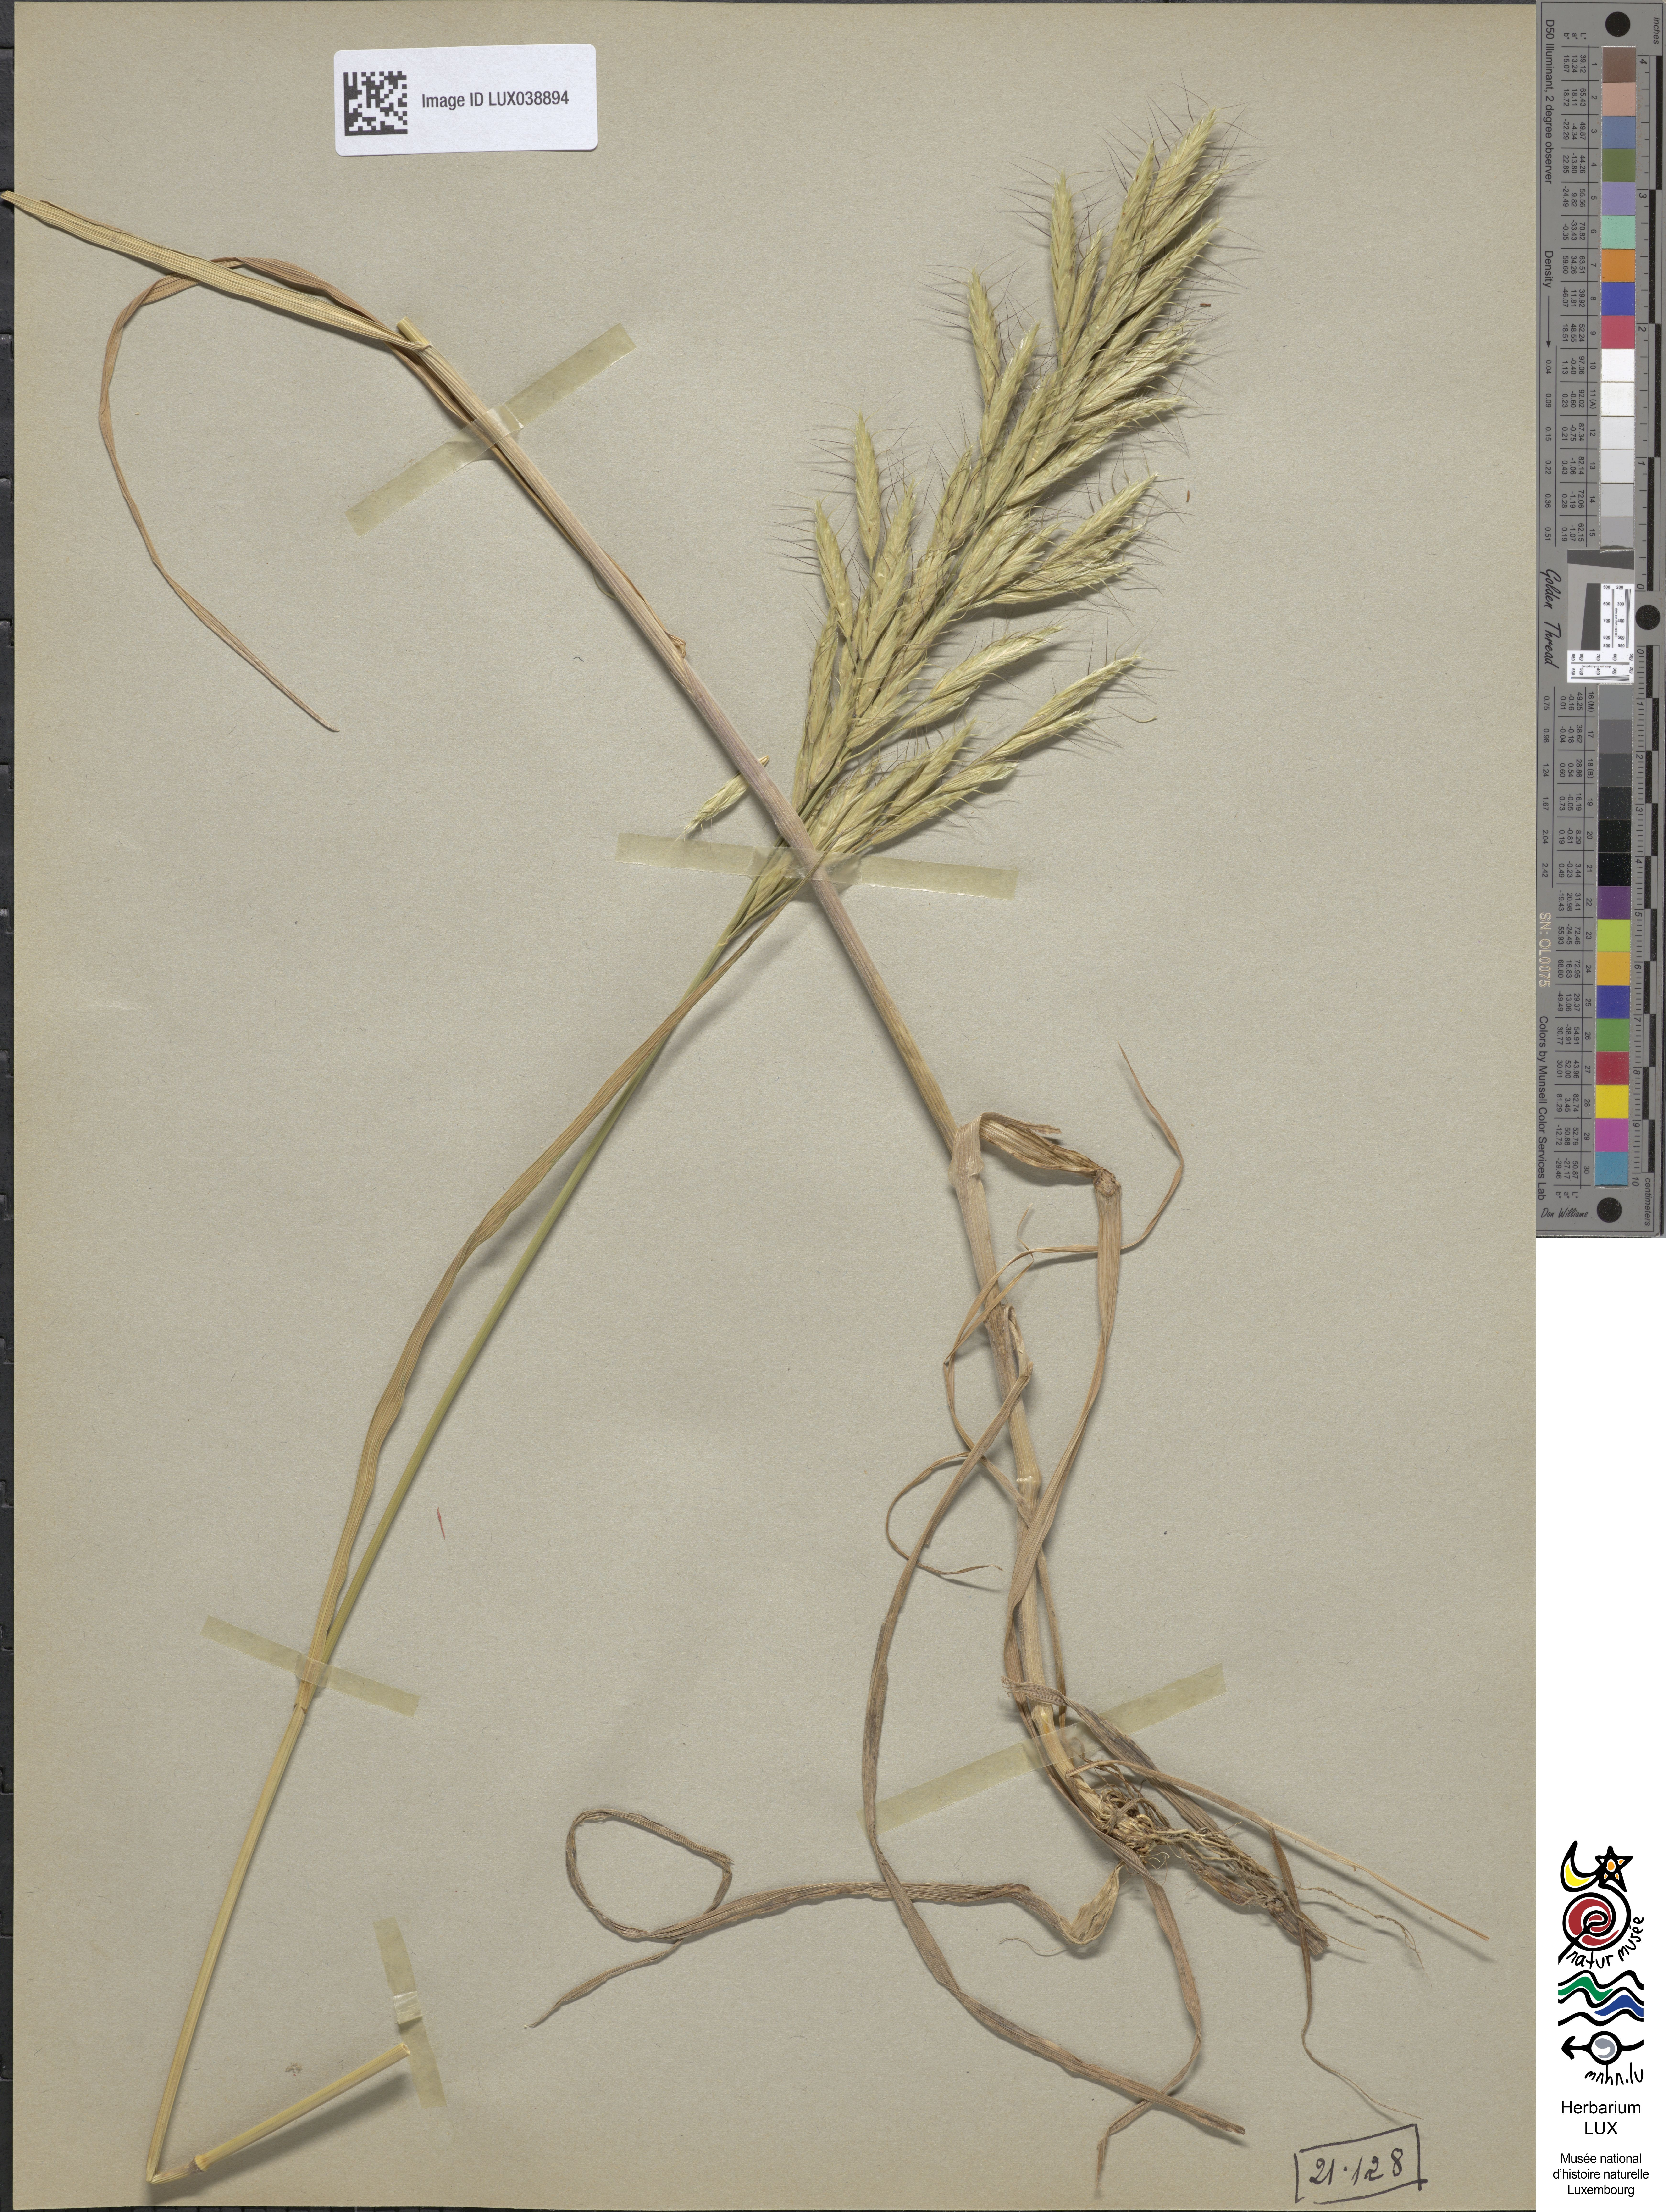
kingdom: Plantae
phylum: Tracheophyta
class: Liliopsida
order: Poales
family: Poaceae
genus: Bromus
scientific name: Bromus lanceolatus
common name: Mediterranean brome
